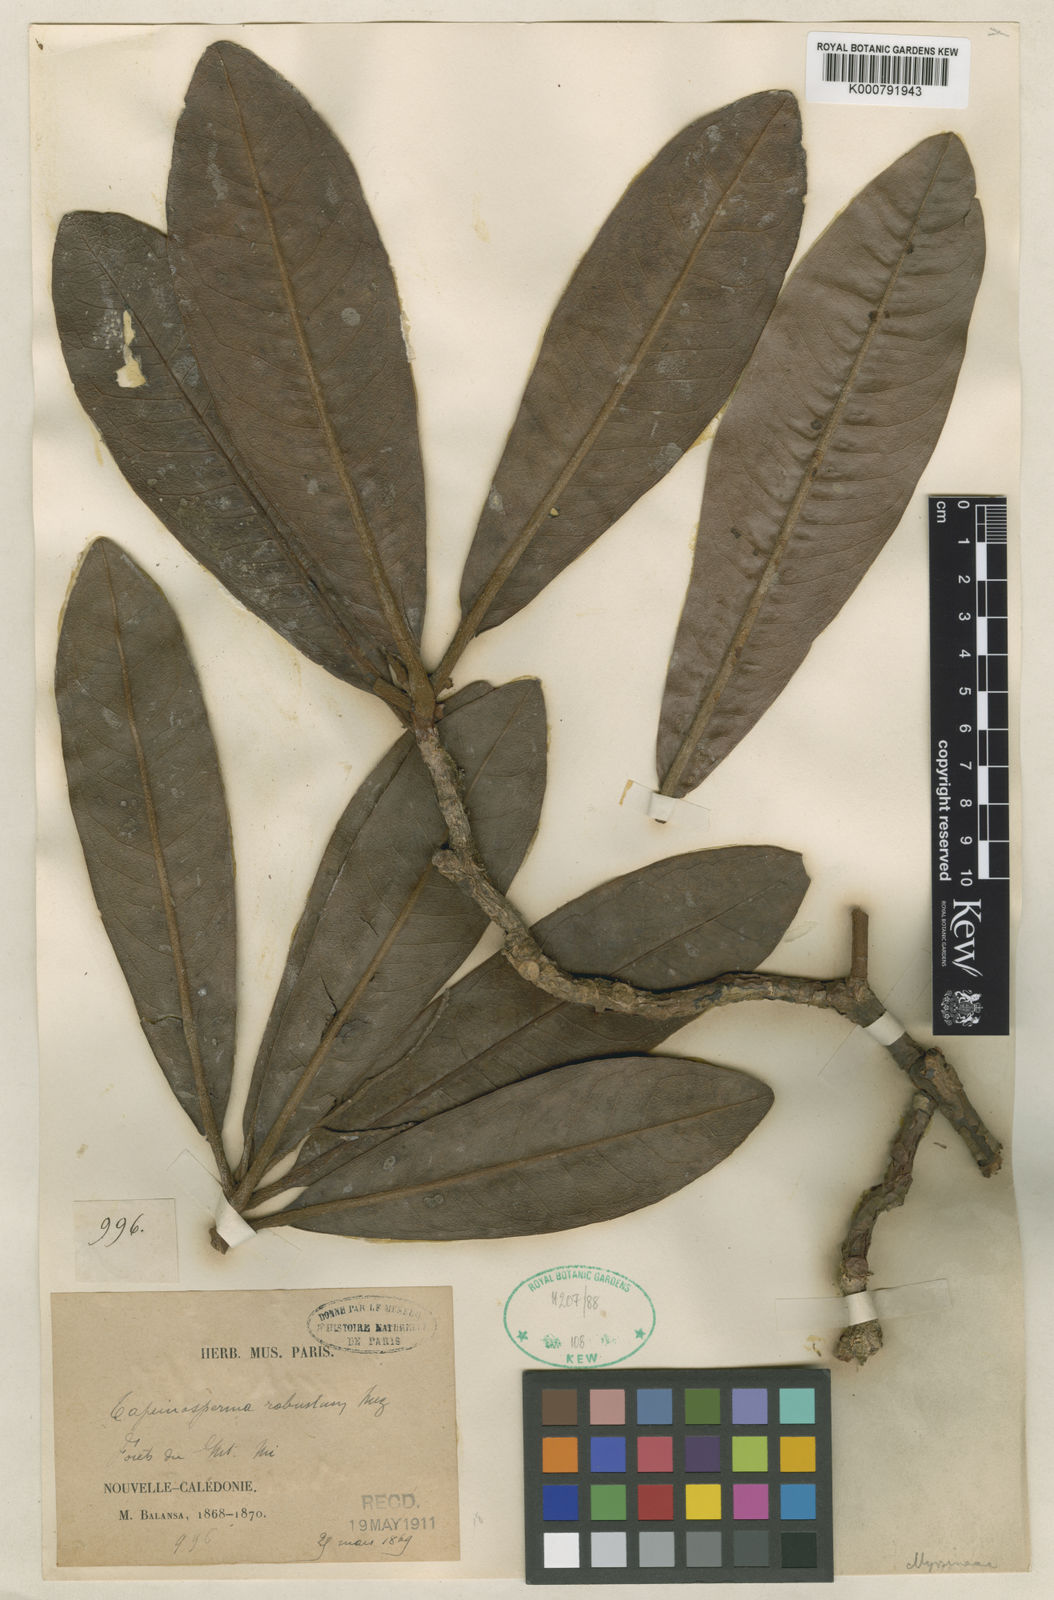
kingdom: Plantae
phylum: Tracheophyta
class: Magnoliopsida
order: Ericales
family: Primulaceae
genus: Tapeinosperma
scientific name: Tapeinosperma robustum
